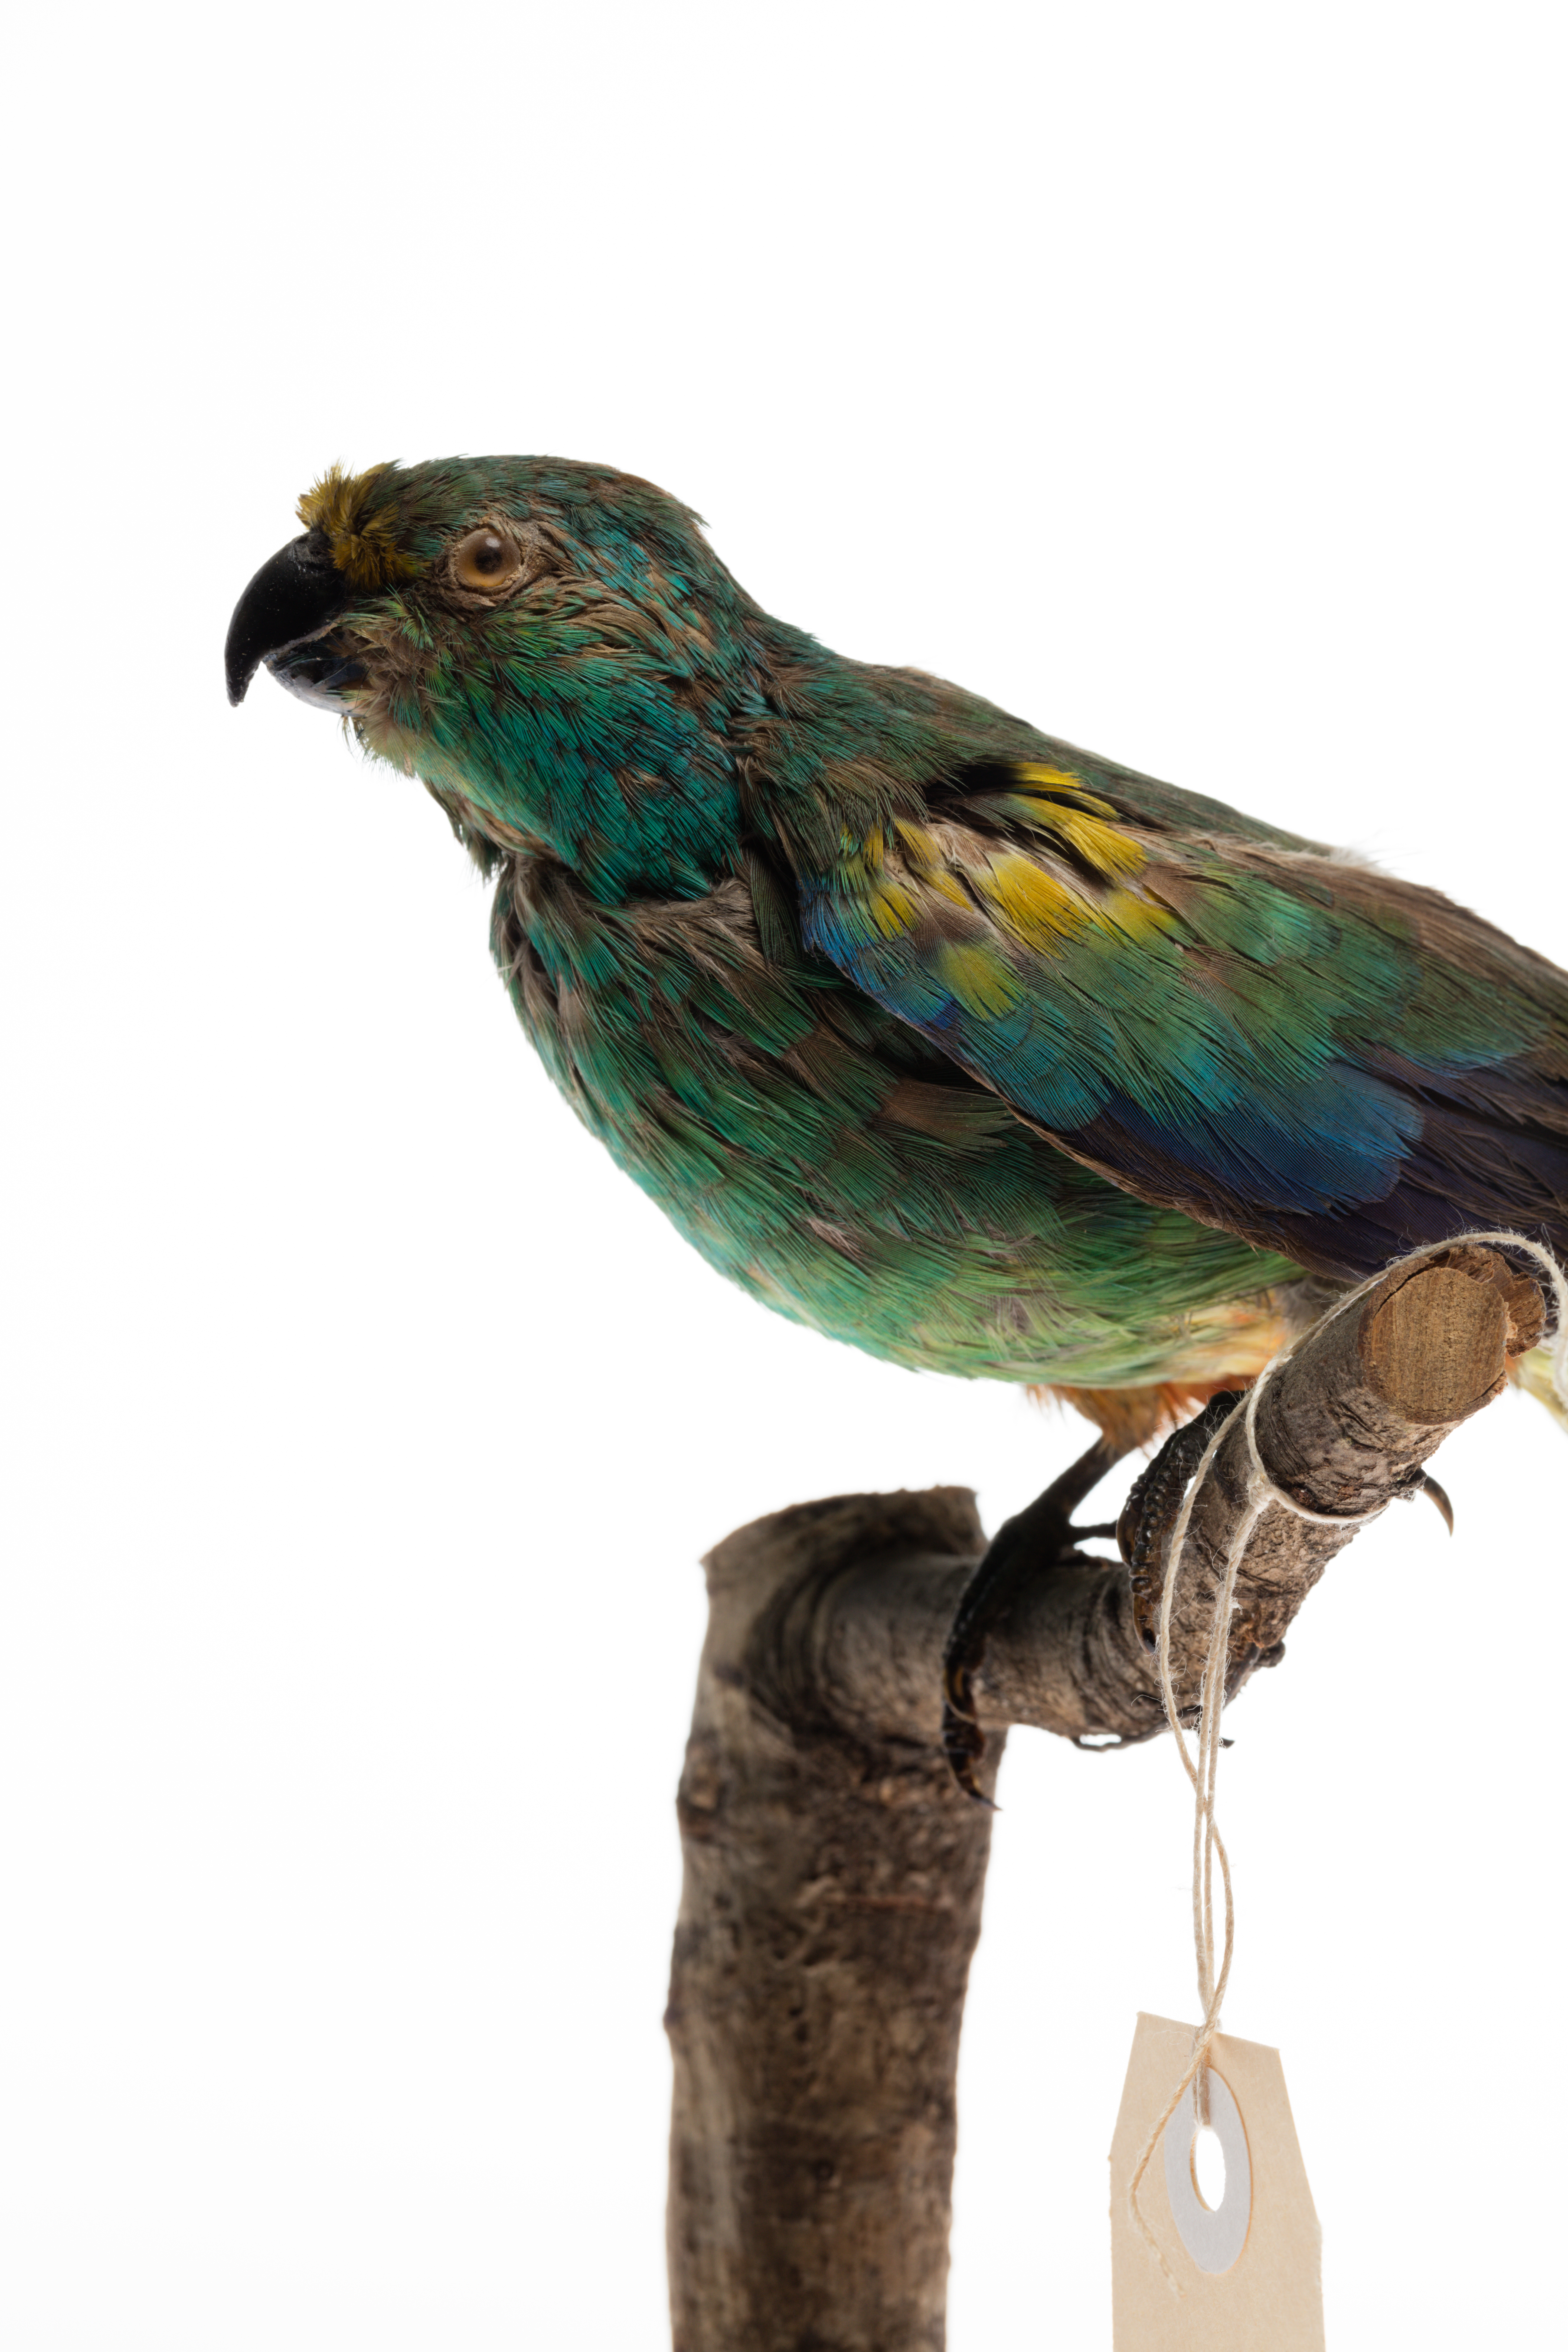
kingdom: Animalia
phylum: Chordata
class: Aves
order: Psittaciformes
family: Psittacidae
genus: Psephotus
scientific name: Psephotus varius
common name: Mulga parrot
